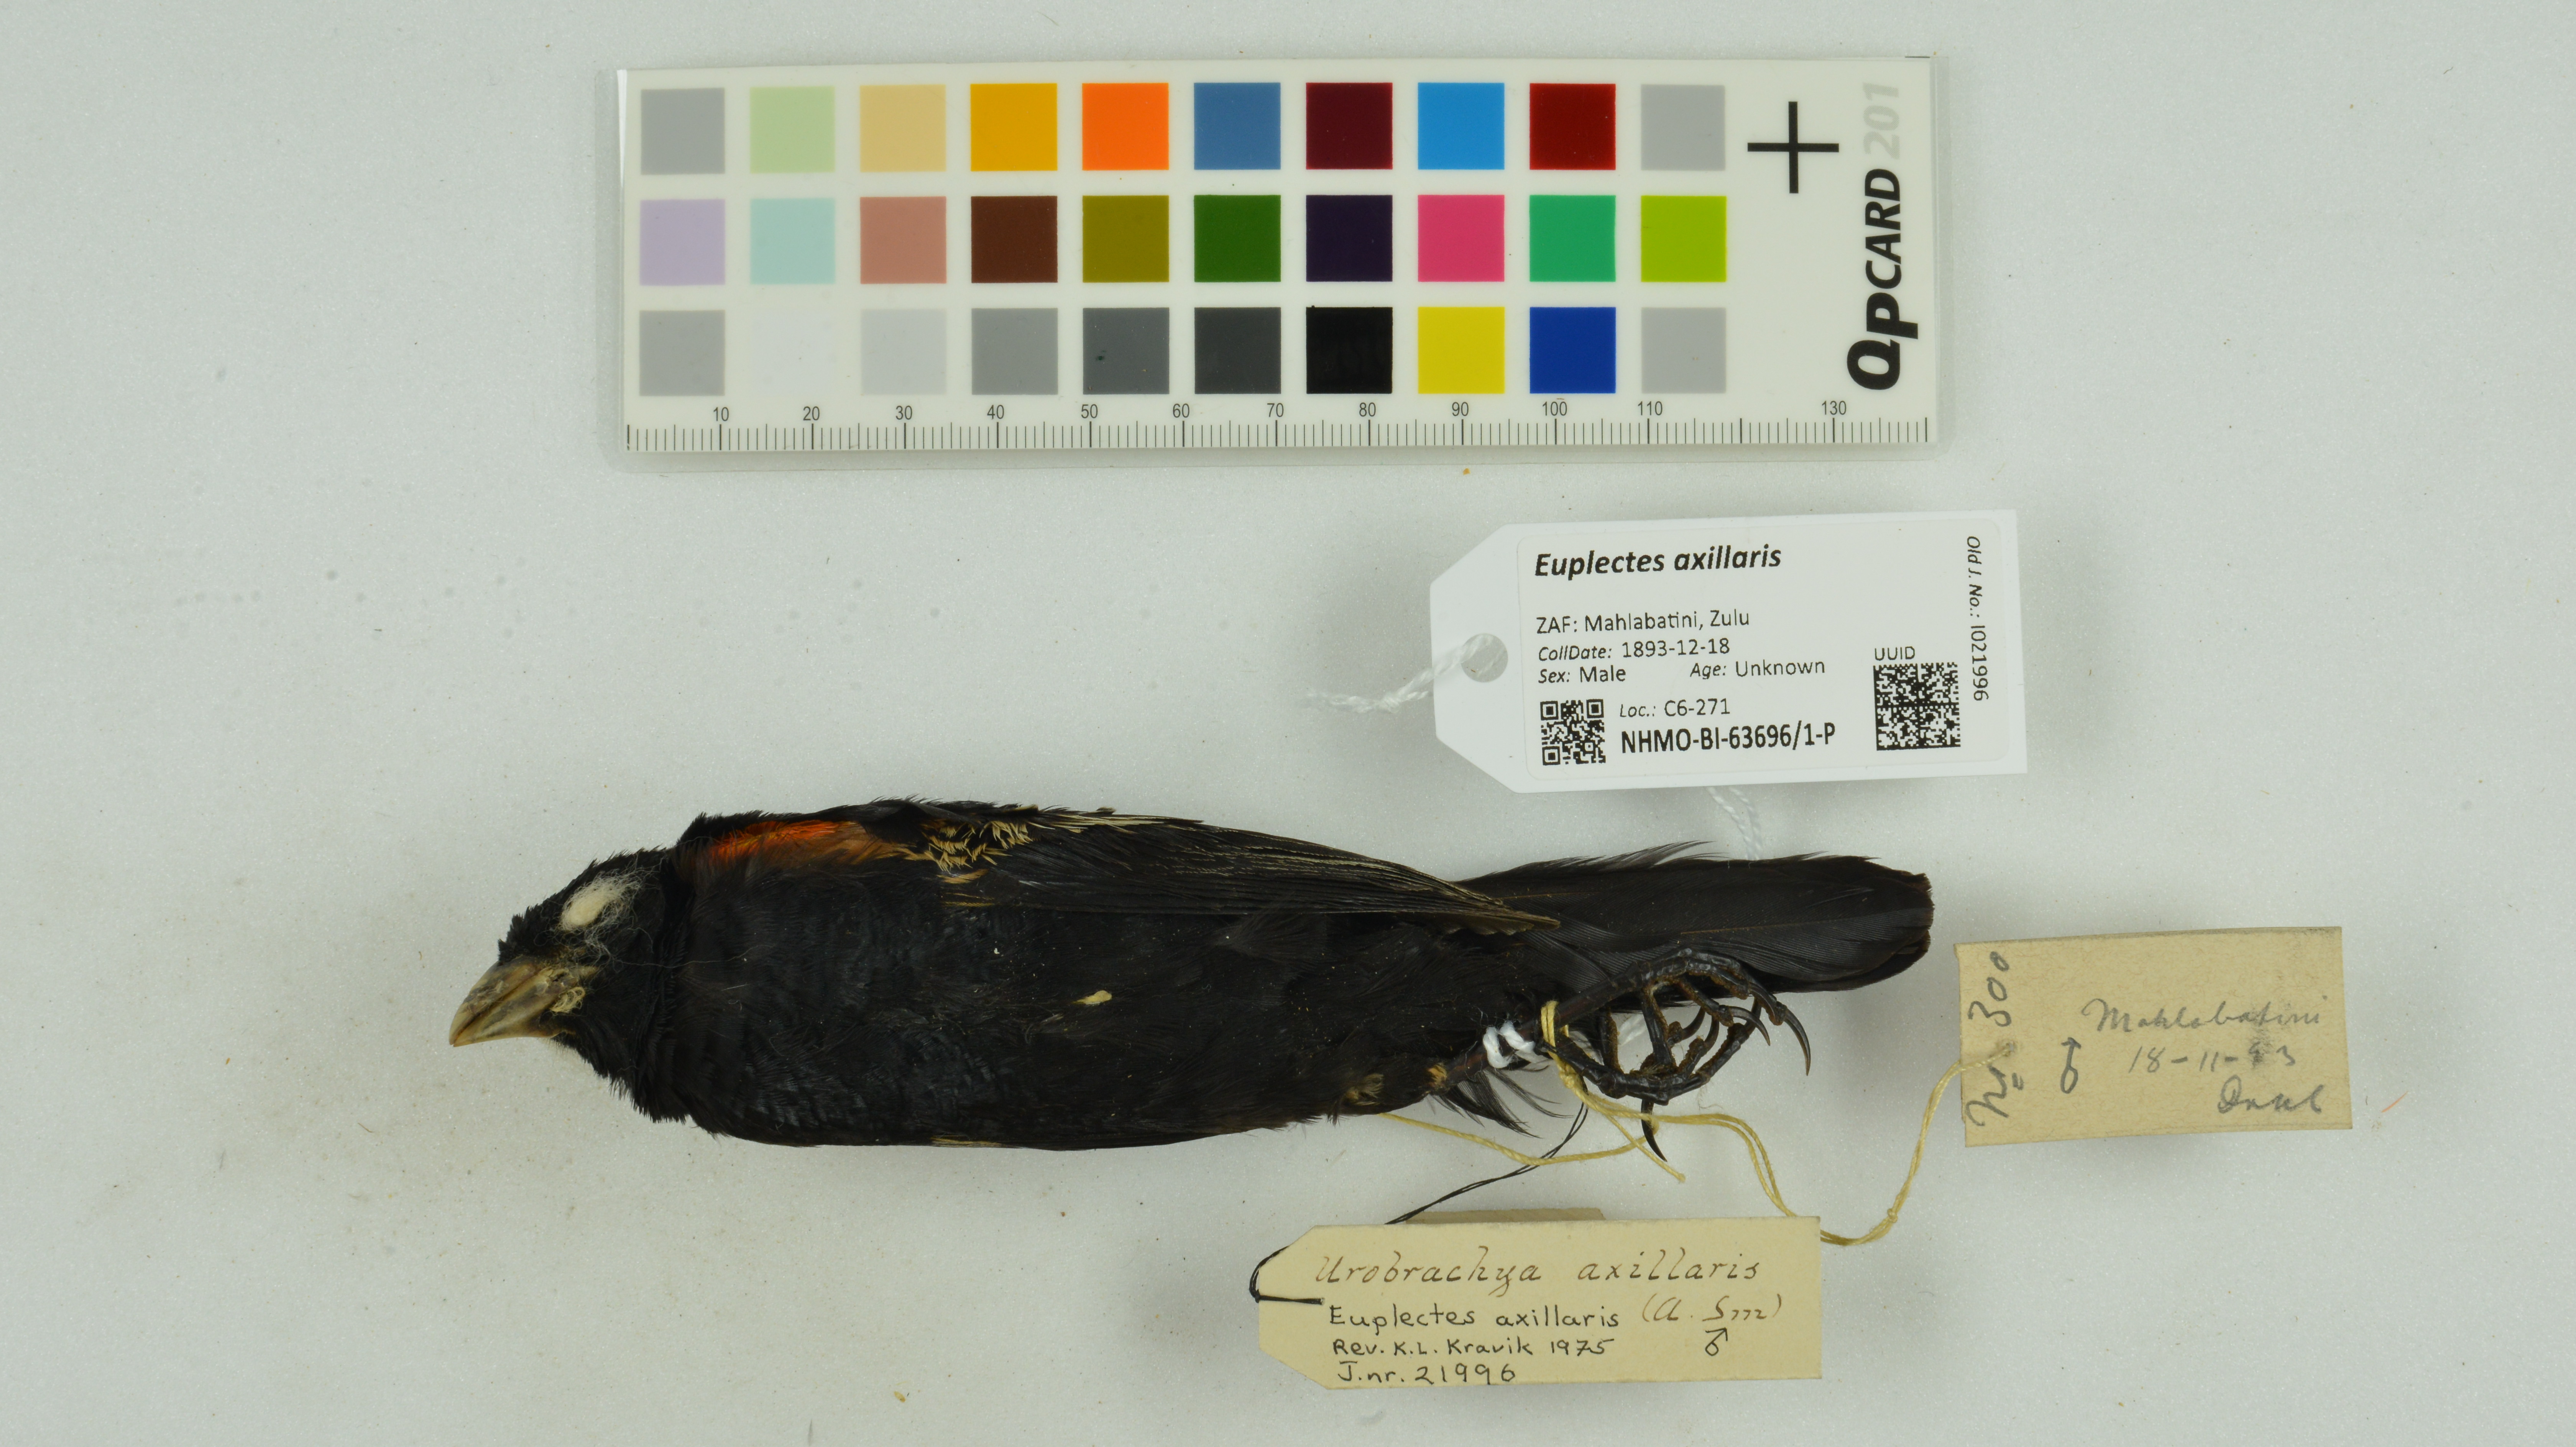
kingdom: Animalia
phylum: Chordata
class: Aves
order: Passeriformes
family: Ploceidae
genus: Euplectes
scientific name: Euplectes axillaris
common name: Fan-tailed widowbird
